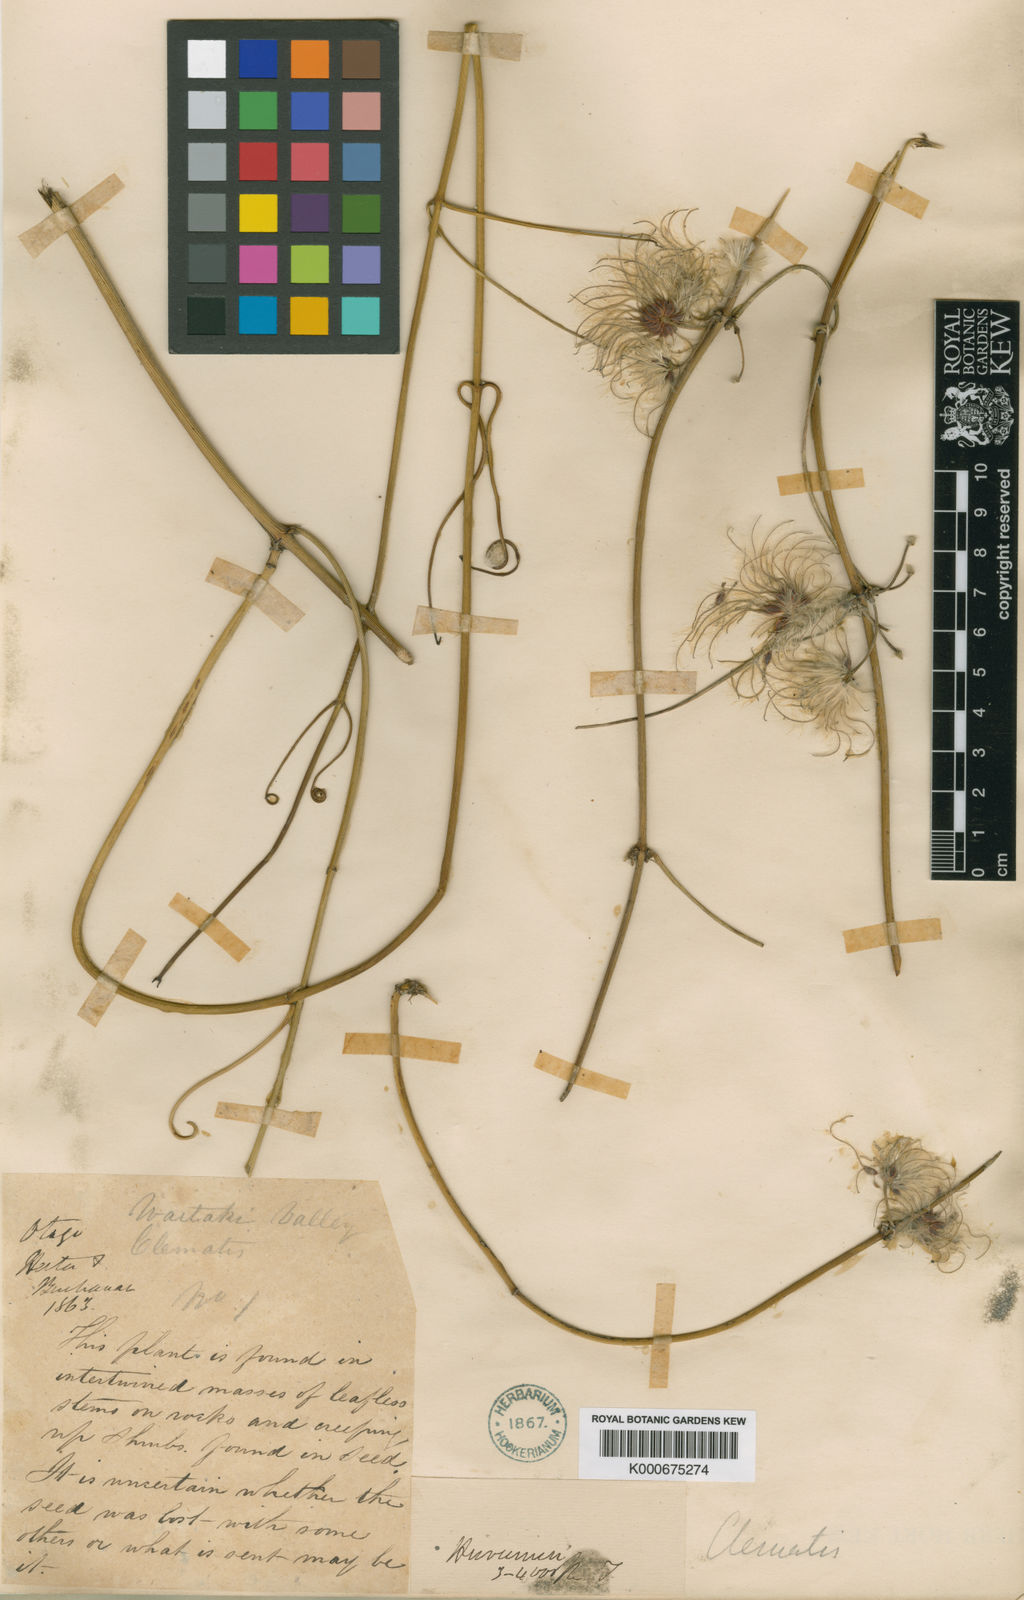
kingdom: Plantae
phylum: Tracheophyta
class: Magnoliopsida
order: Ranunculales
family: Ranunculaceae
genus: Clematis
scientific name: Clematis afoliata
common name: Rush-stem clematis
